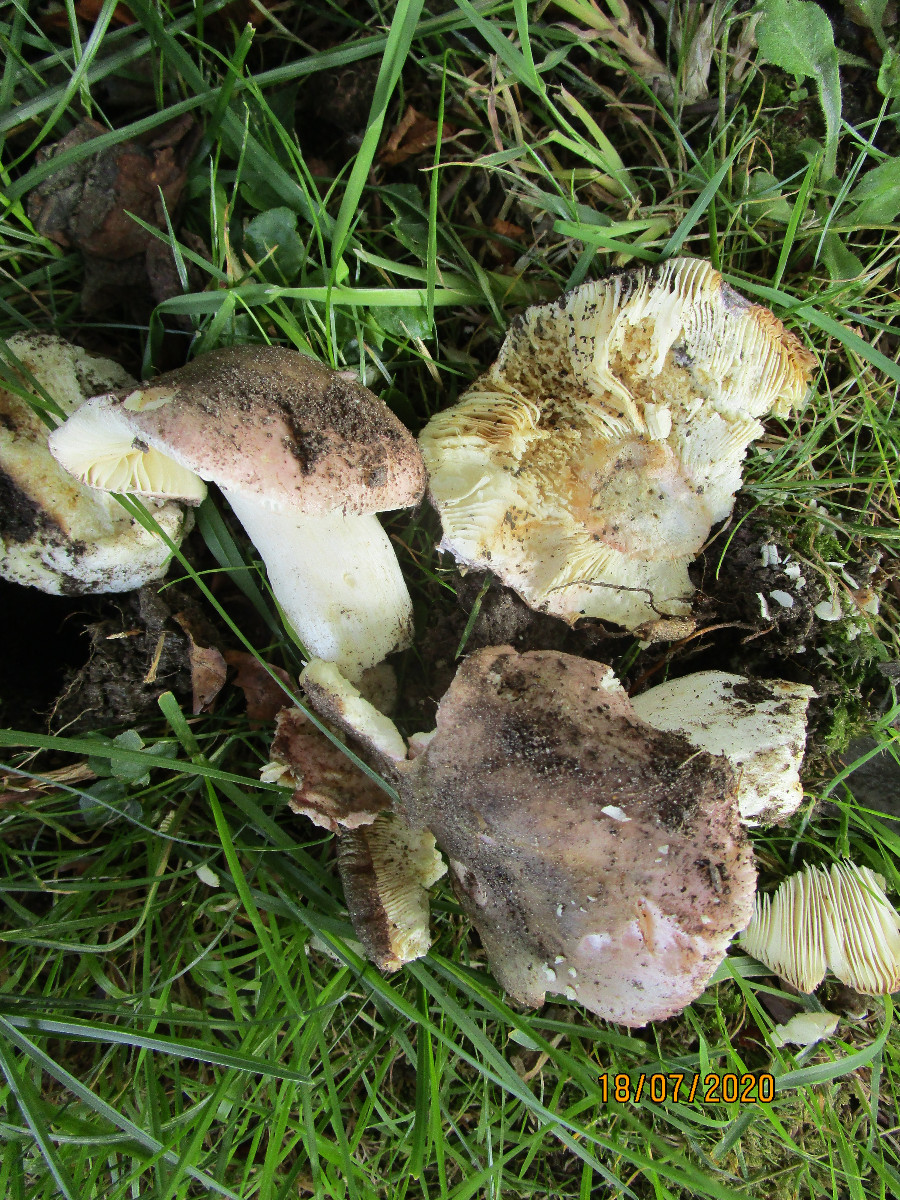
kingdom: Fungi
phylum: Basidiomycota
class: Agaricomycetes
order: Russulales
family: Russulaceae
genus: Russula
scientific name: Russula vesca
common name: spiselig skørhat
